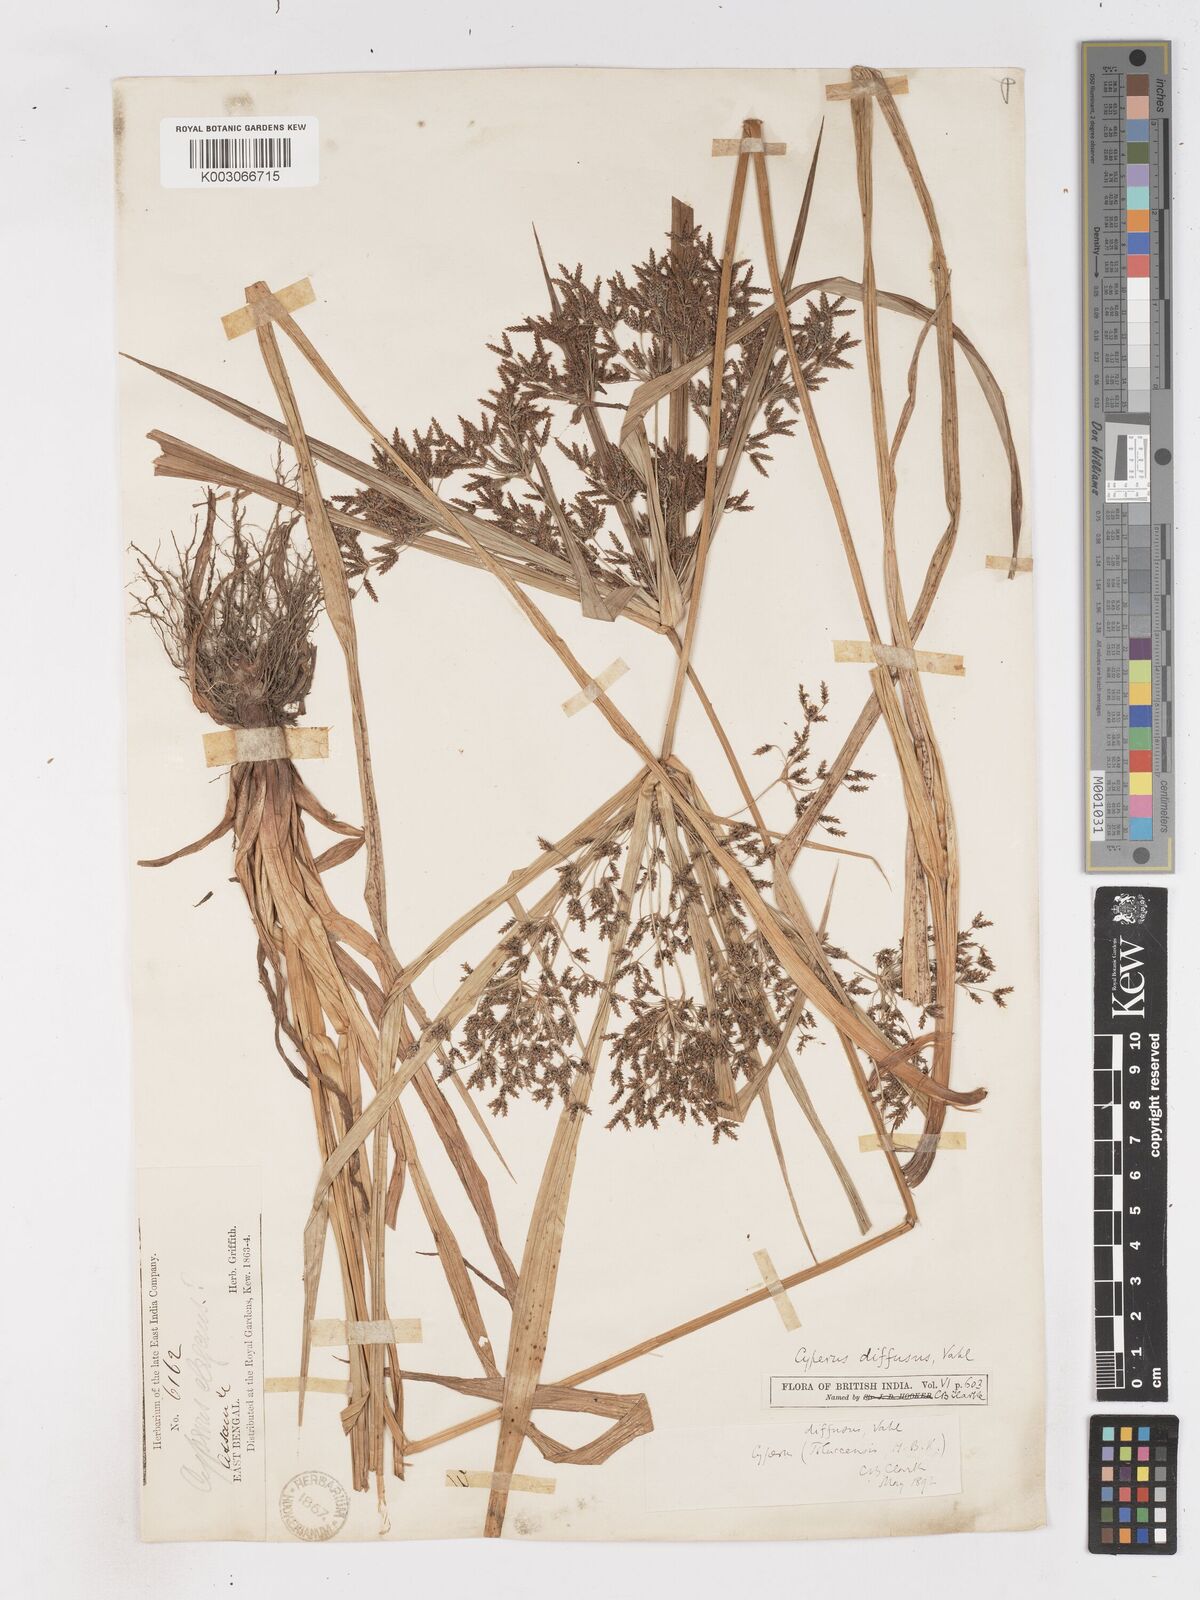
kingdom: Plantae
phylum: Tracheophyta
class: Liliopsida
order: Poales
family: Cyperaceae
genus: Cyperus
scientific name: Cyperus diffusus
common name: Dwarf umbrella grass
